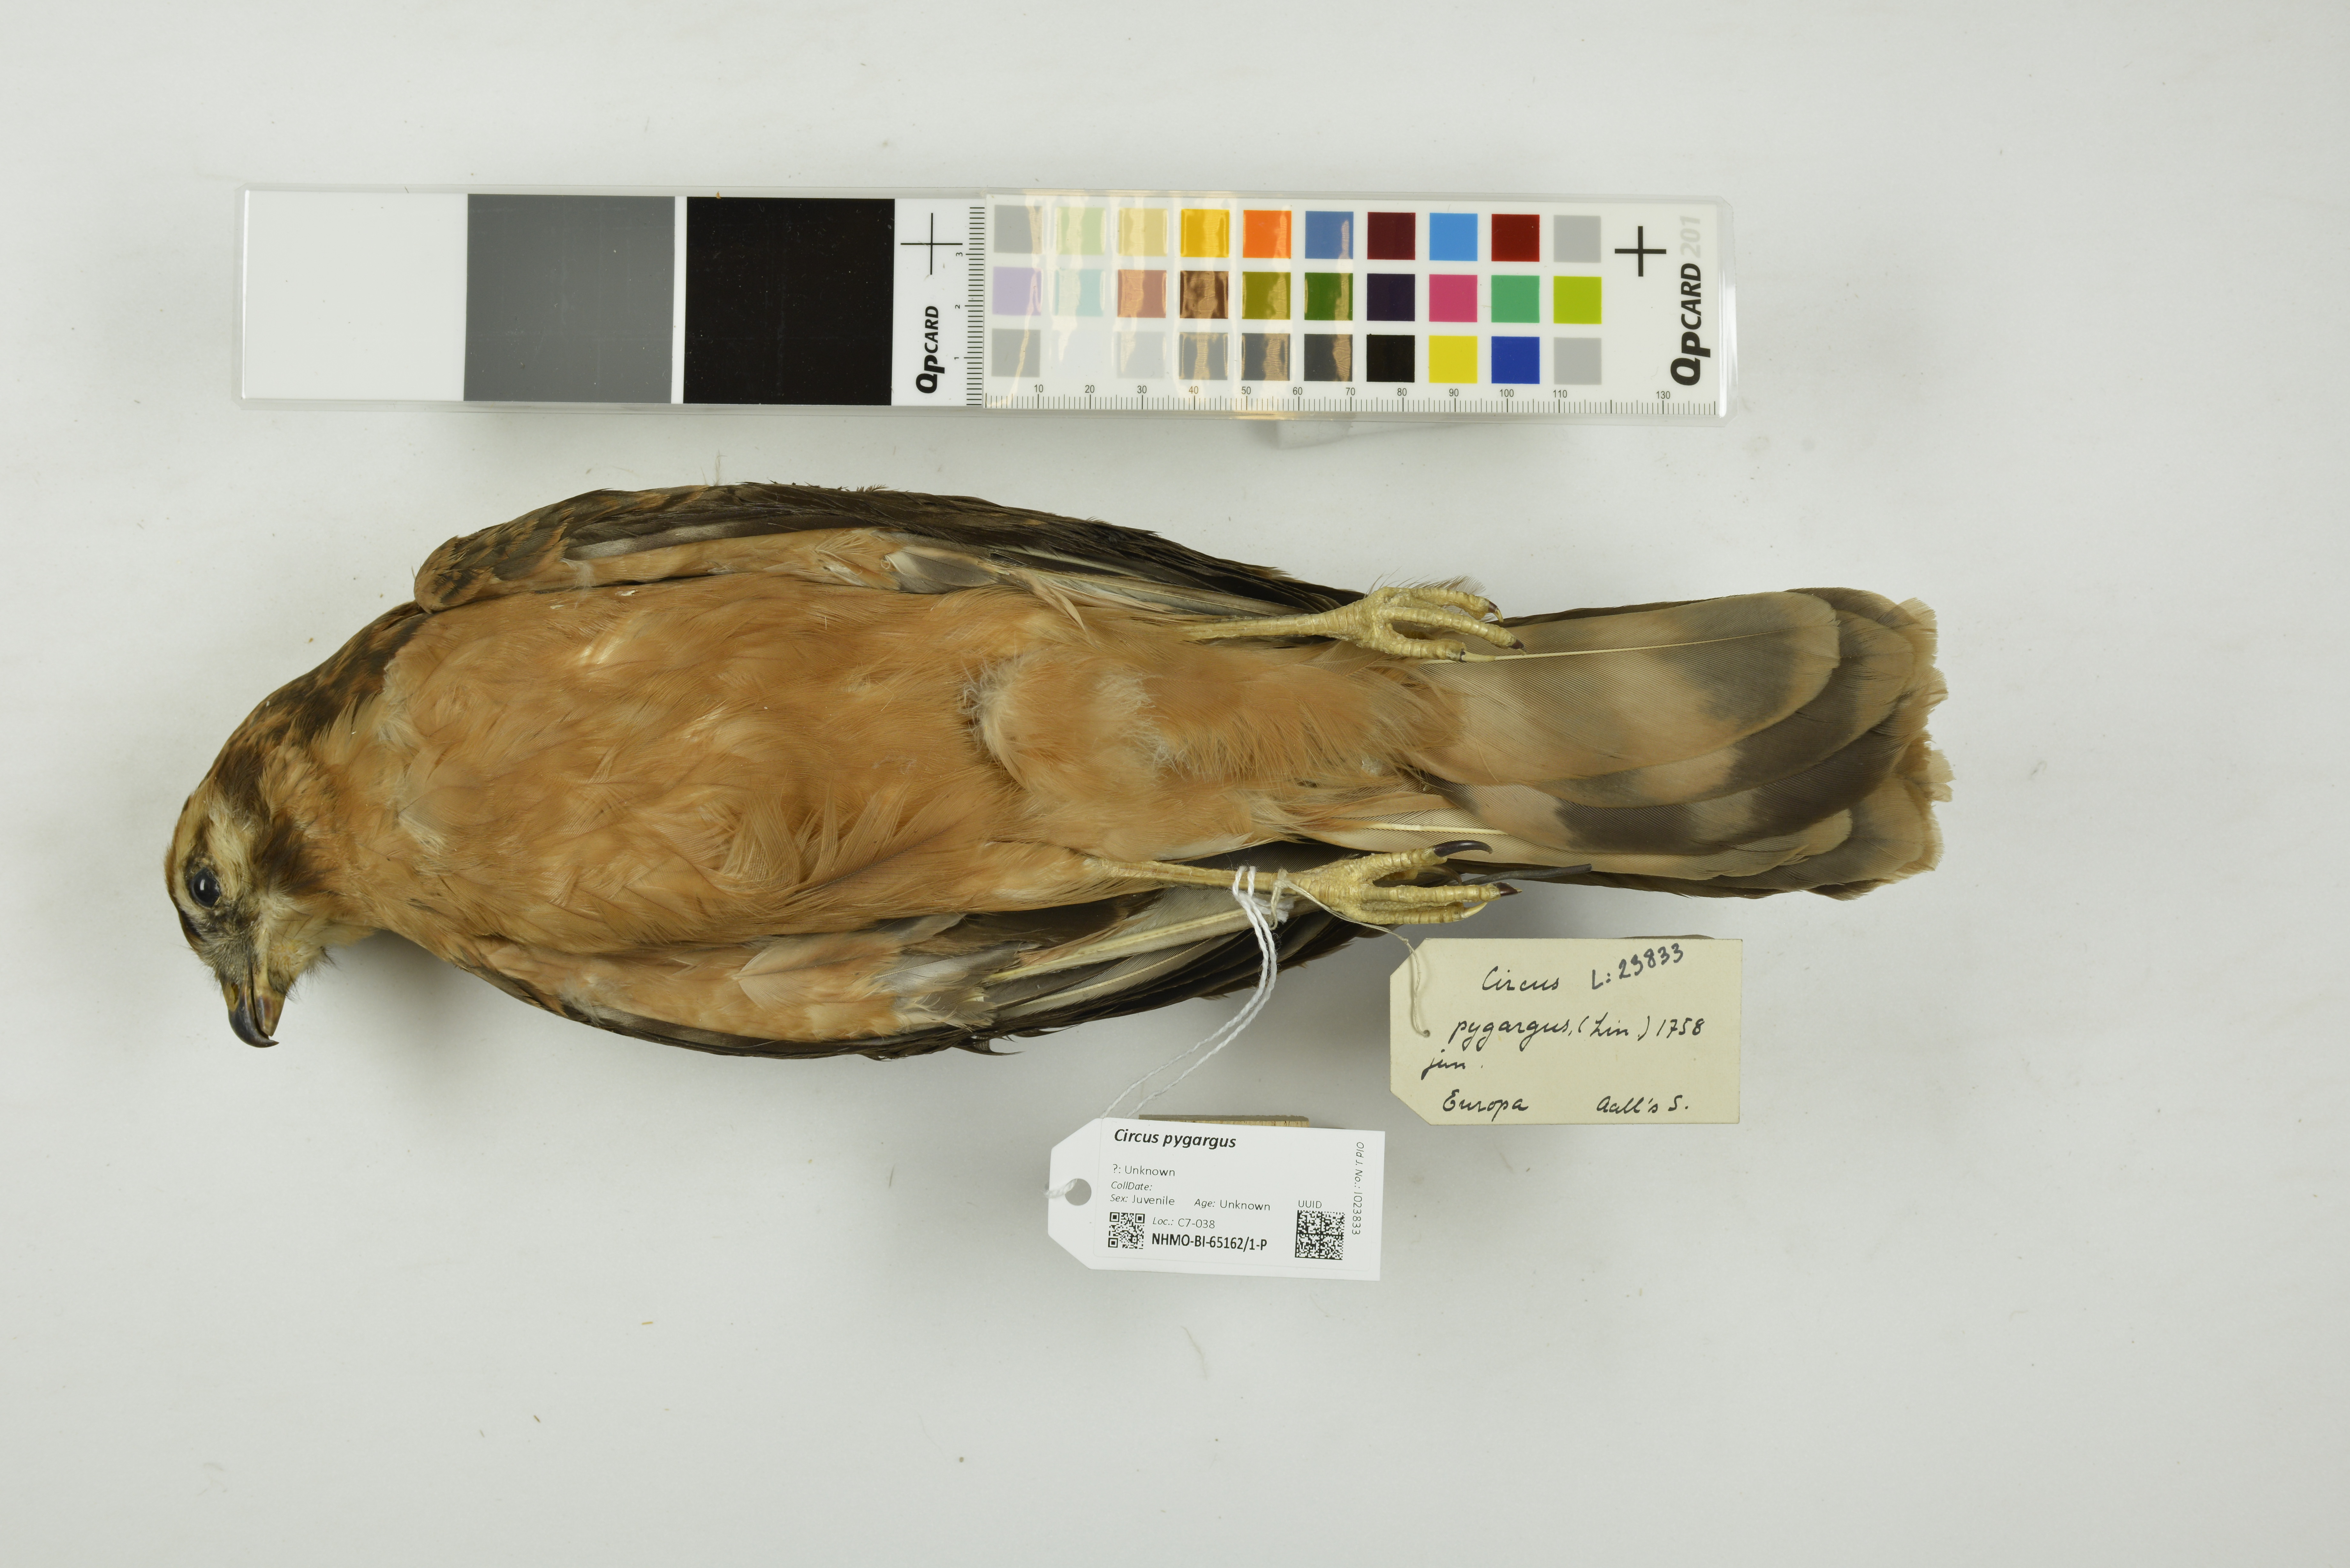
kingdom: Animalia
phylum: Chordata
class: Aves
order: Accipitriformes
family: Accipitridae
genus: Circus
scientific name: Circus pygargus
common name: Montagu's harrier
